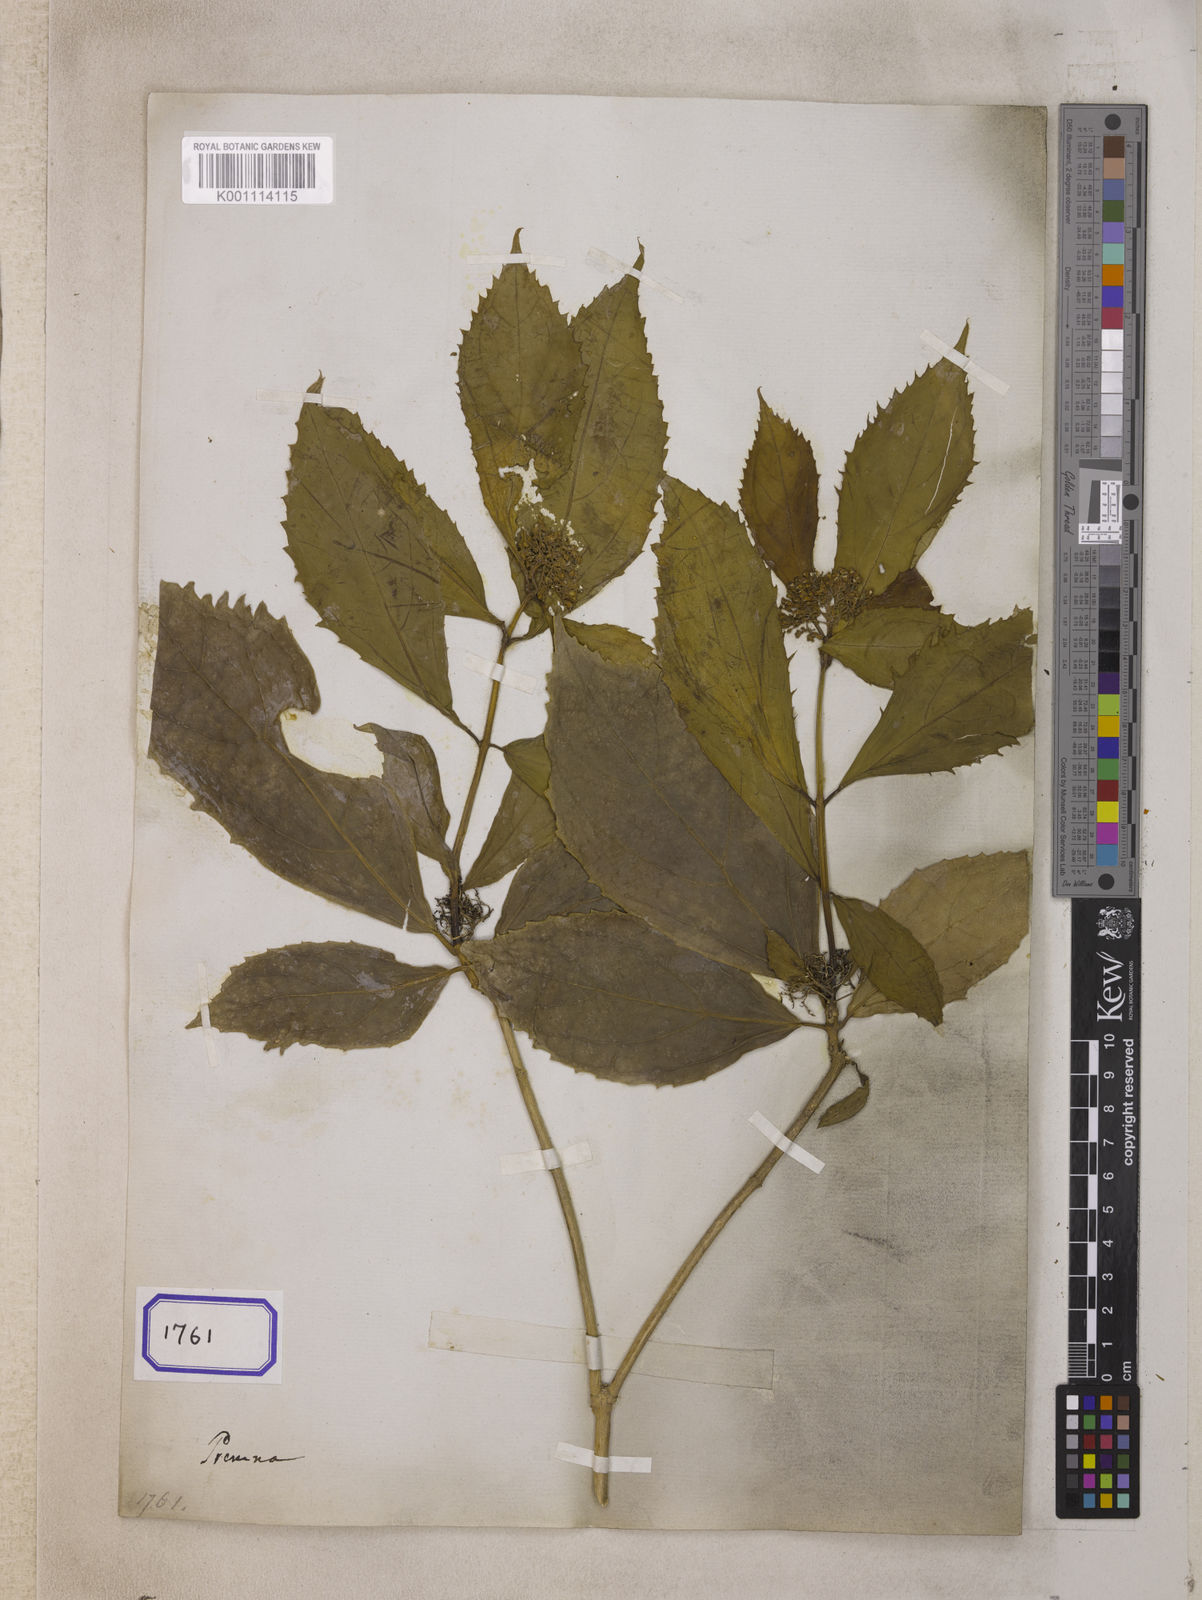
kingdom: Plantae
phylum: Tracheophyta
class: Magnoliopsida
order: Lamiales
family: Lamiaceae
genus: Premna
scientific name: Premna esculenta
